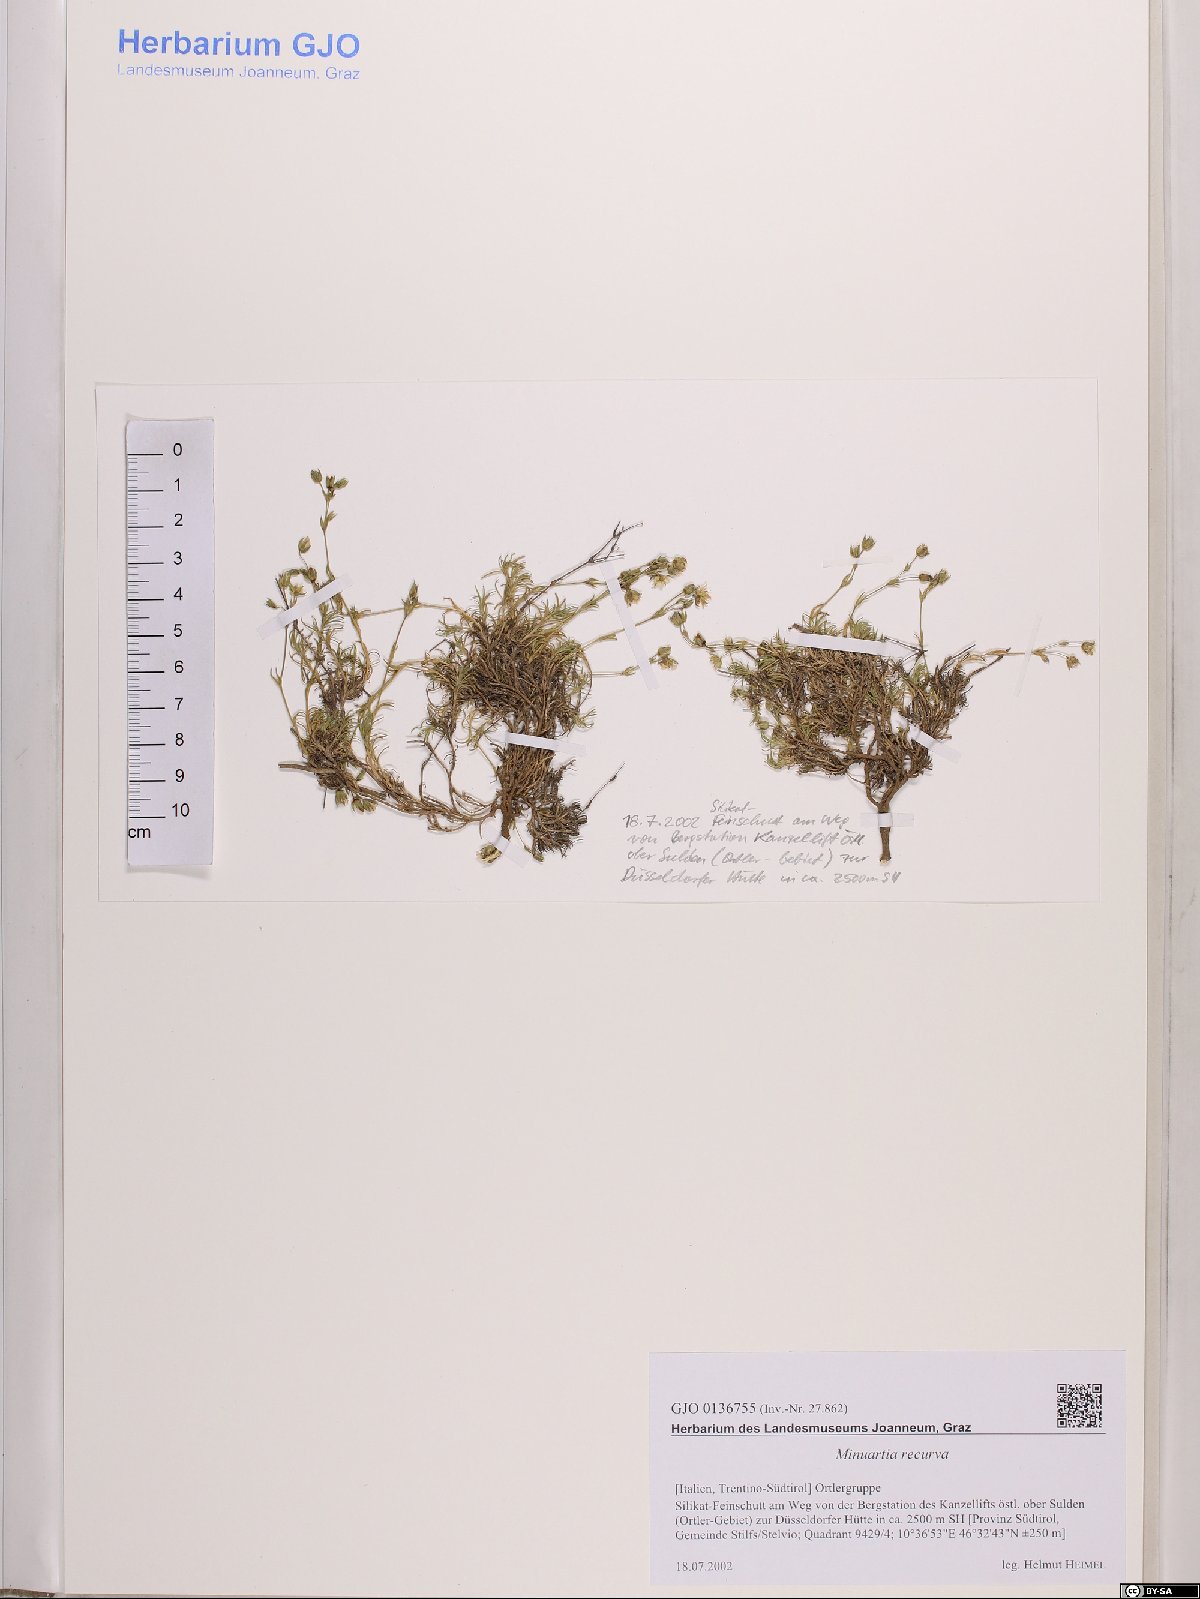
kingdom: Plantae
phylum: Tracheophyta
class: Magnoliopsida
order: Caryophyllales
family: Caryophyllaceae
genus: Minuartia
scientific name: Minuartia recurva
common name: Recurved sandwort
